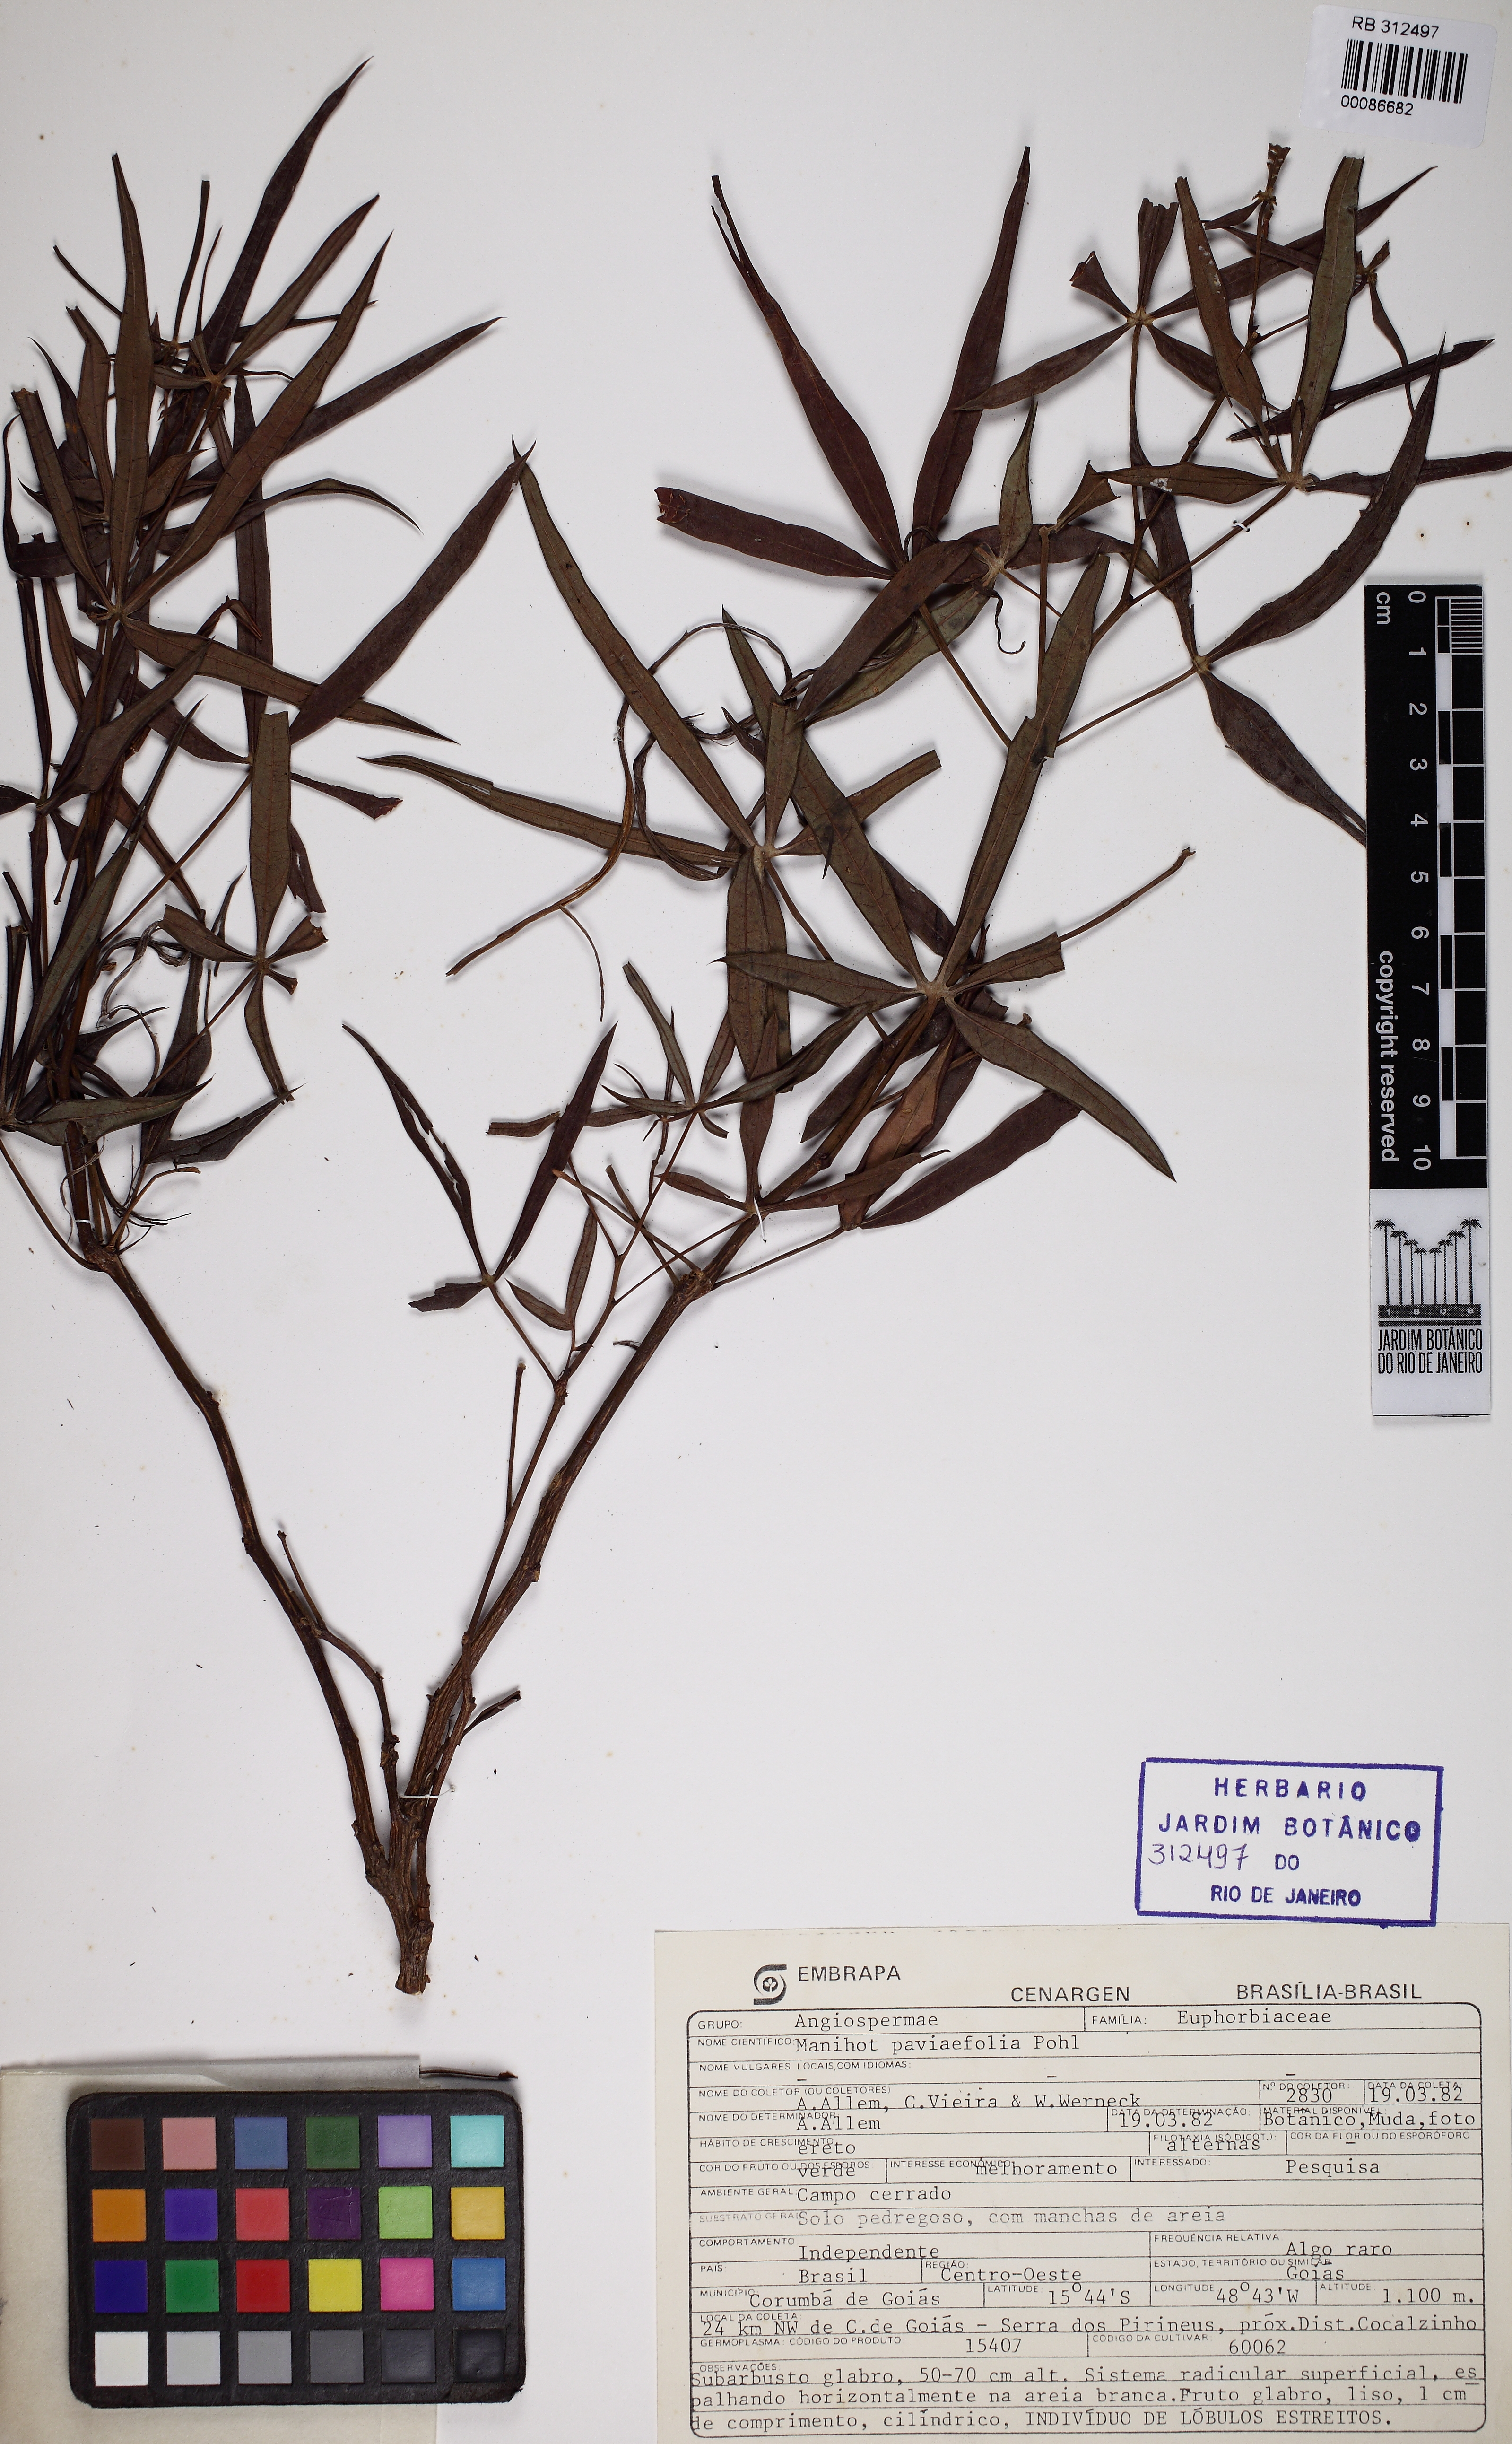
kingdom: Plantae
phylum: Tracheophyta
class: Magnoliopsida
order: Malpighiales
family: Euphorbiaceae
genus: Manihot
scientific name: Manihot pentaphylla
